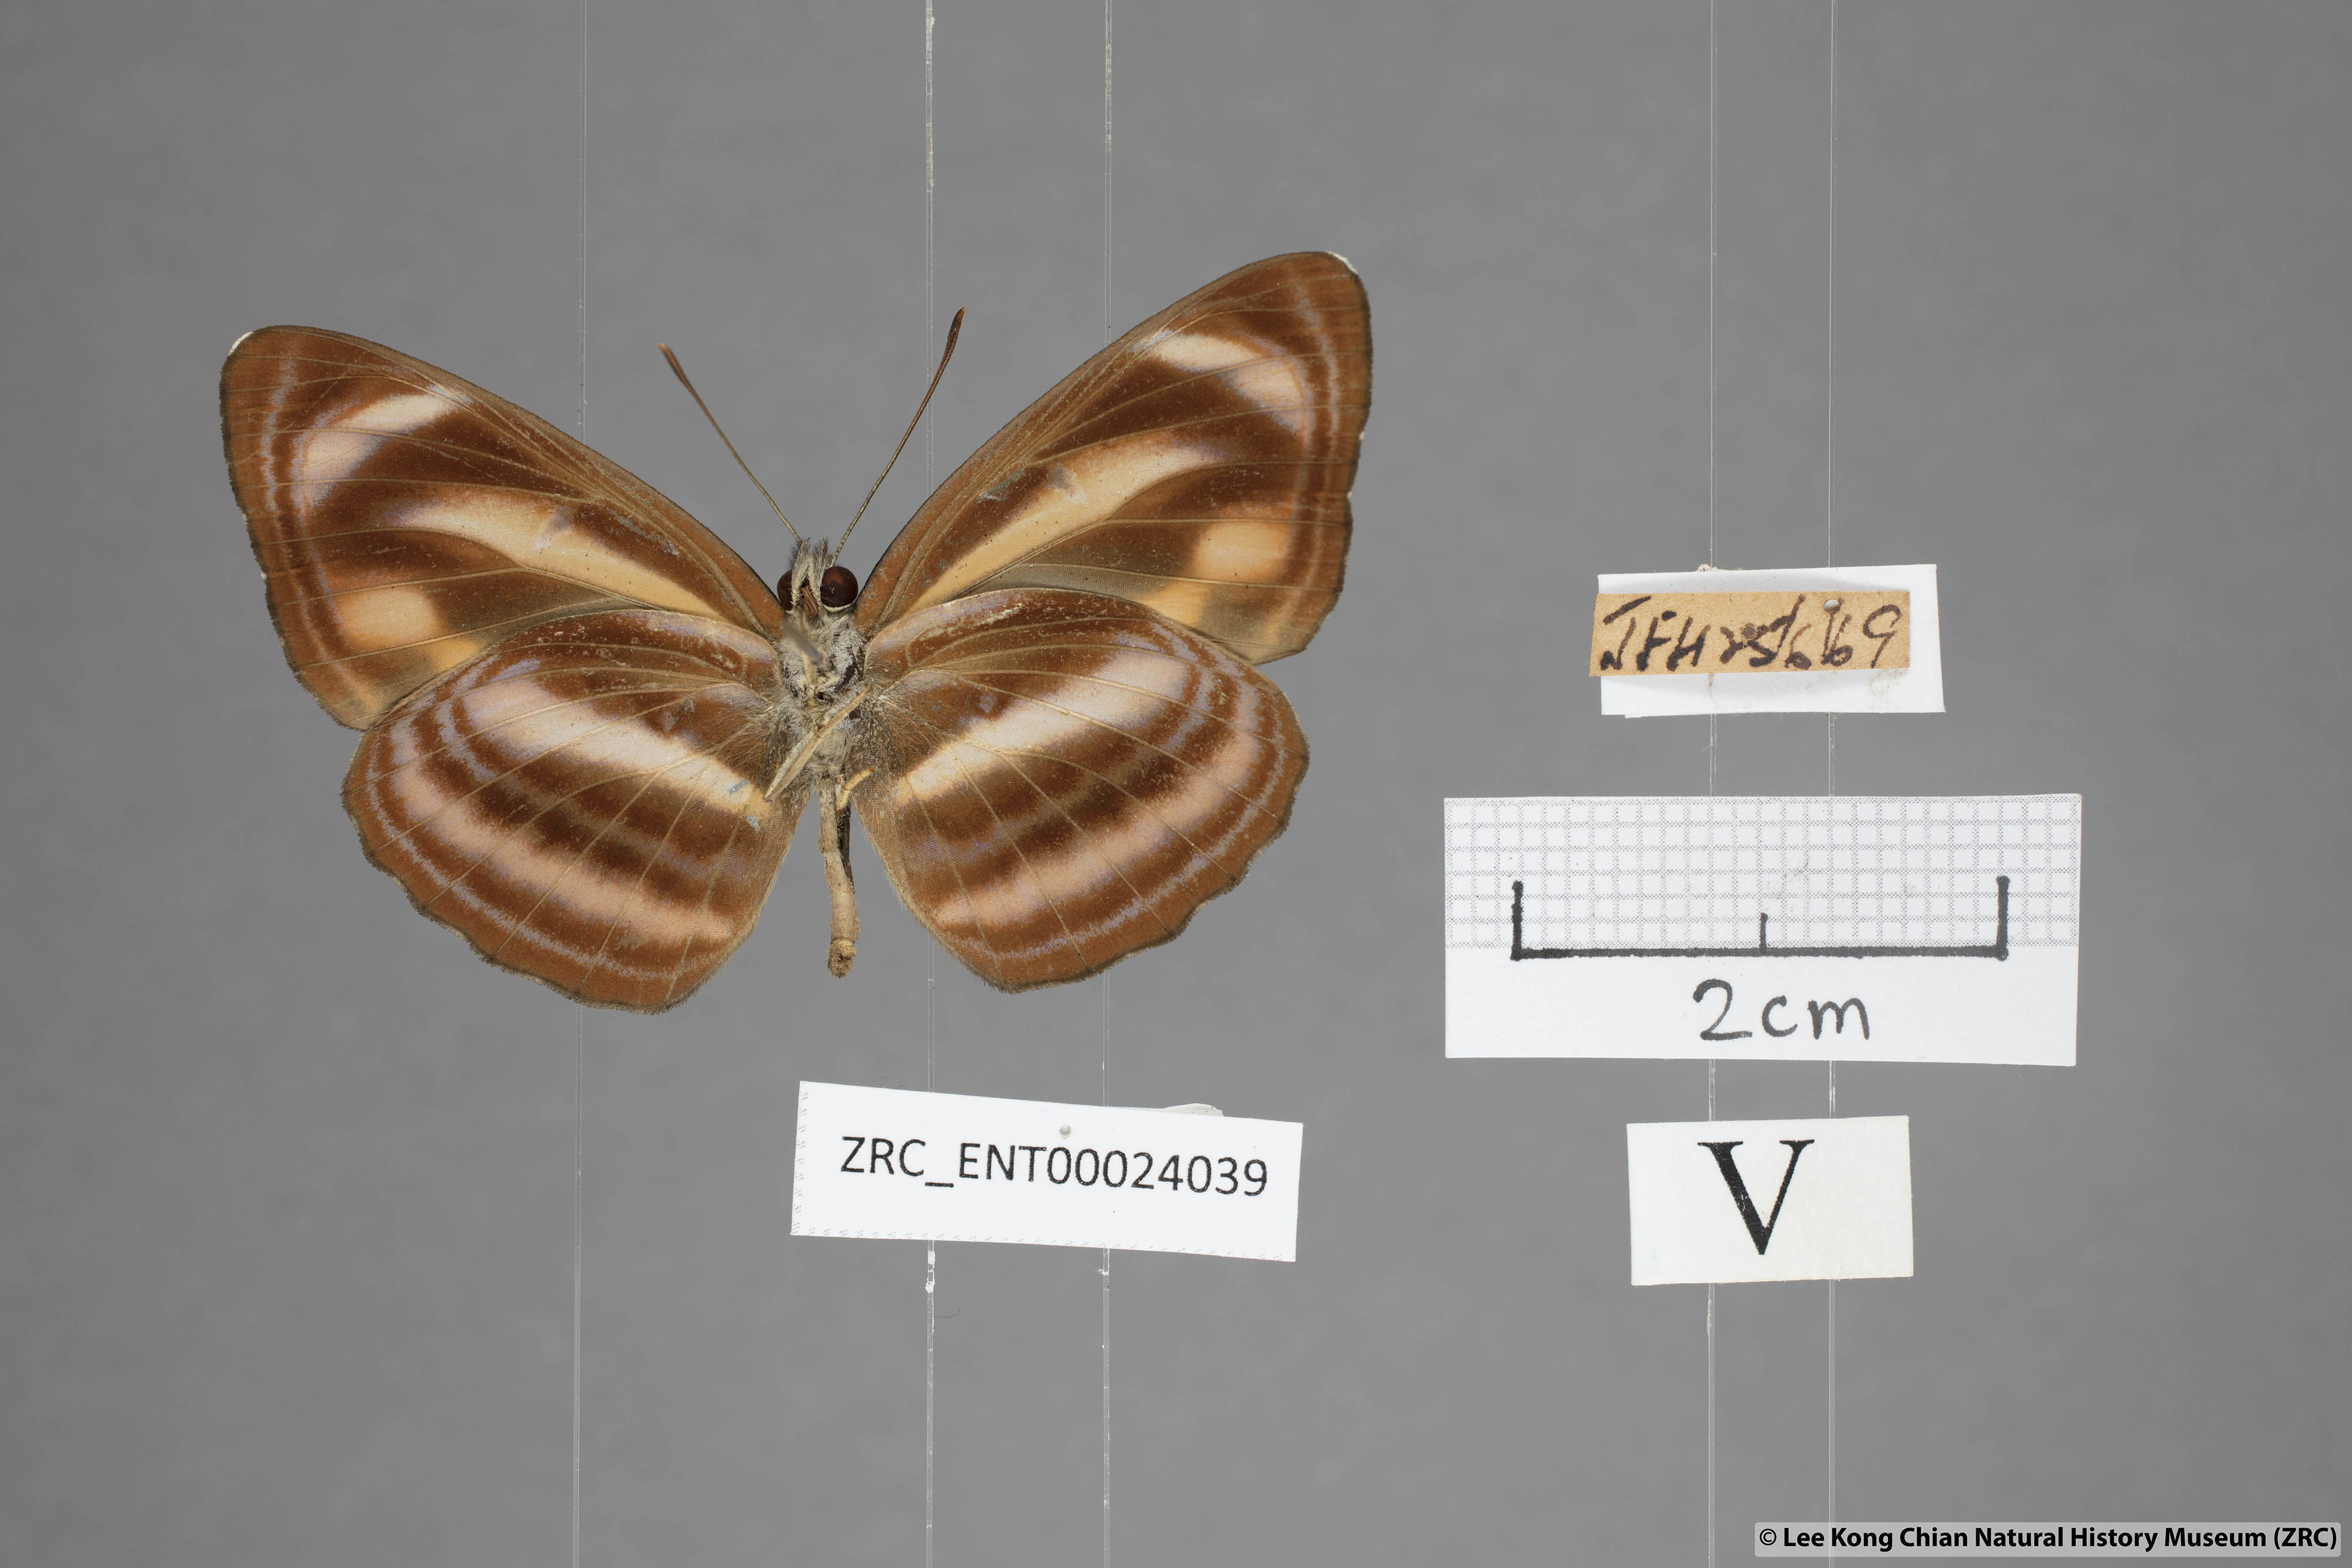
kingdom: Animalia
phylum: Arthropoda
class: Insecta
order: Lepidoptera
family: Nymphalidae
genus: Neptis
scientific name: Neptis miah
